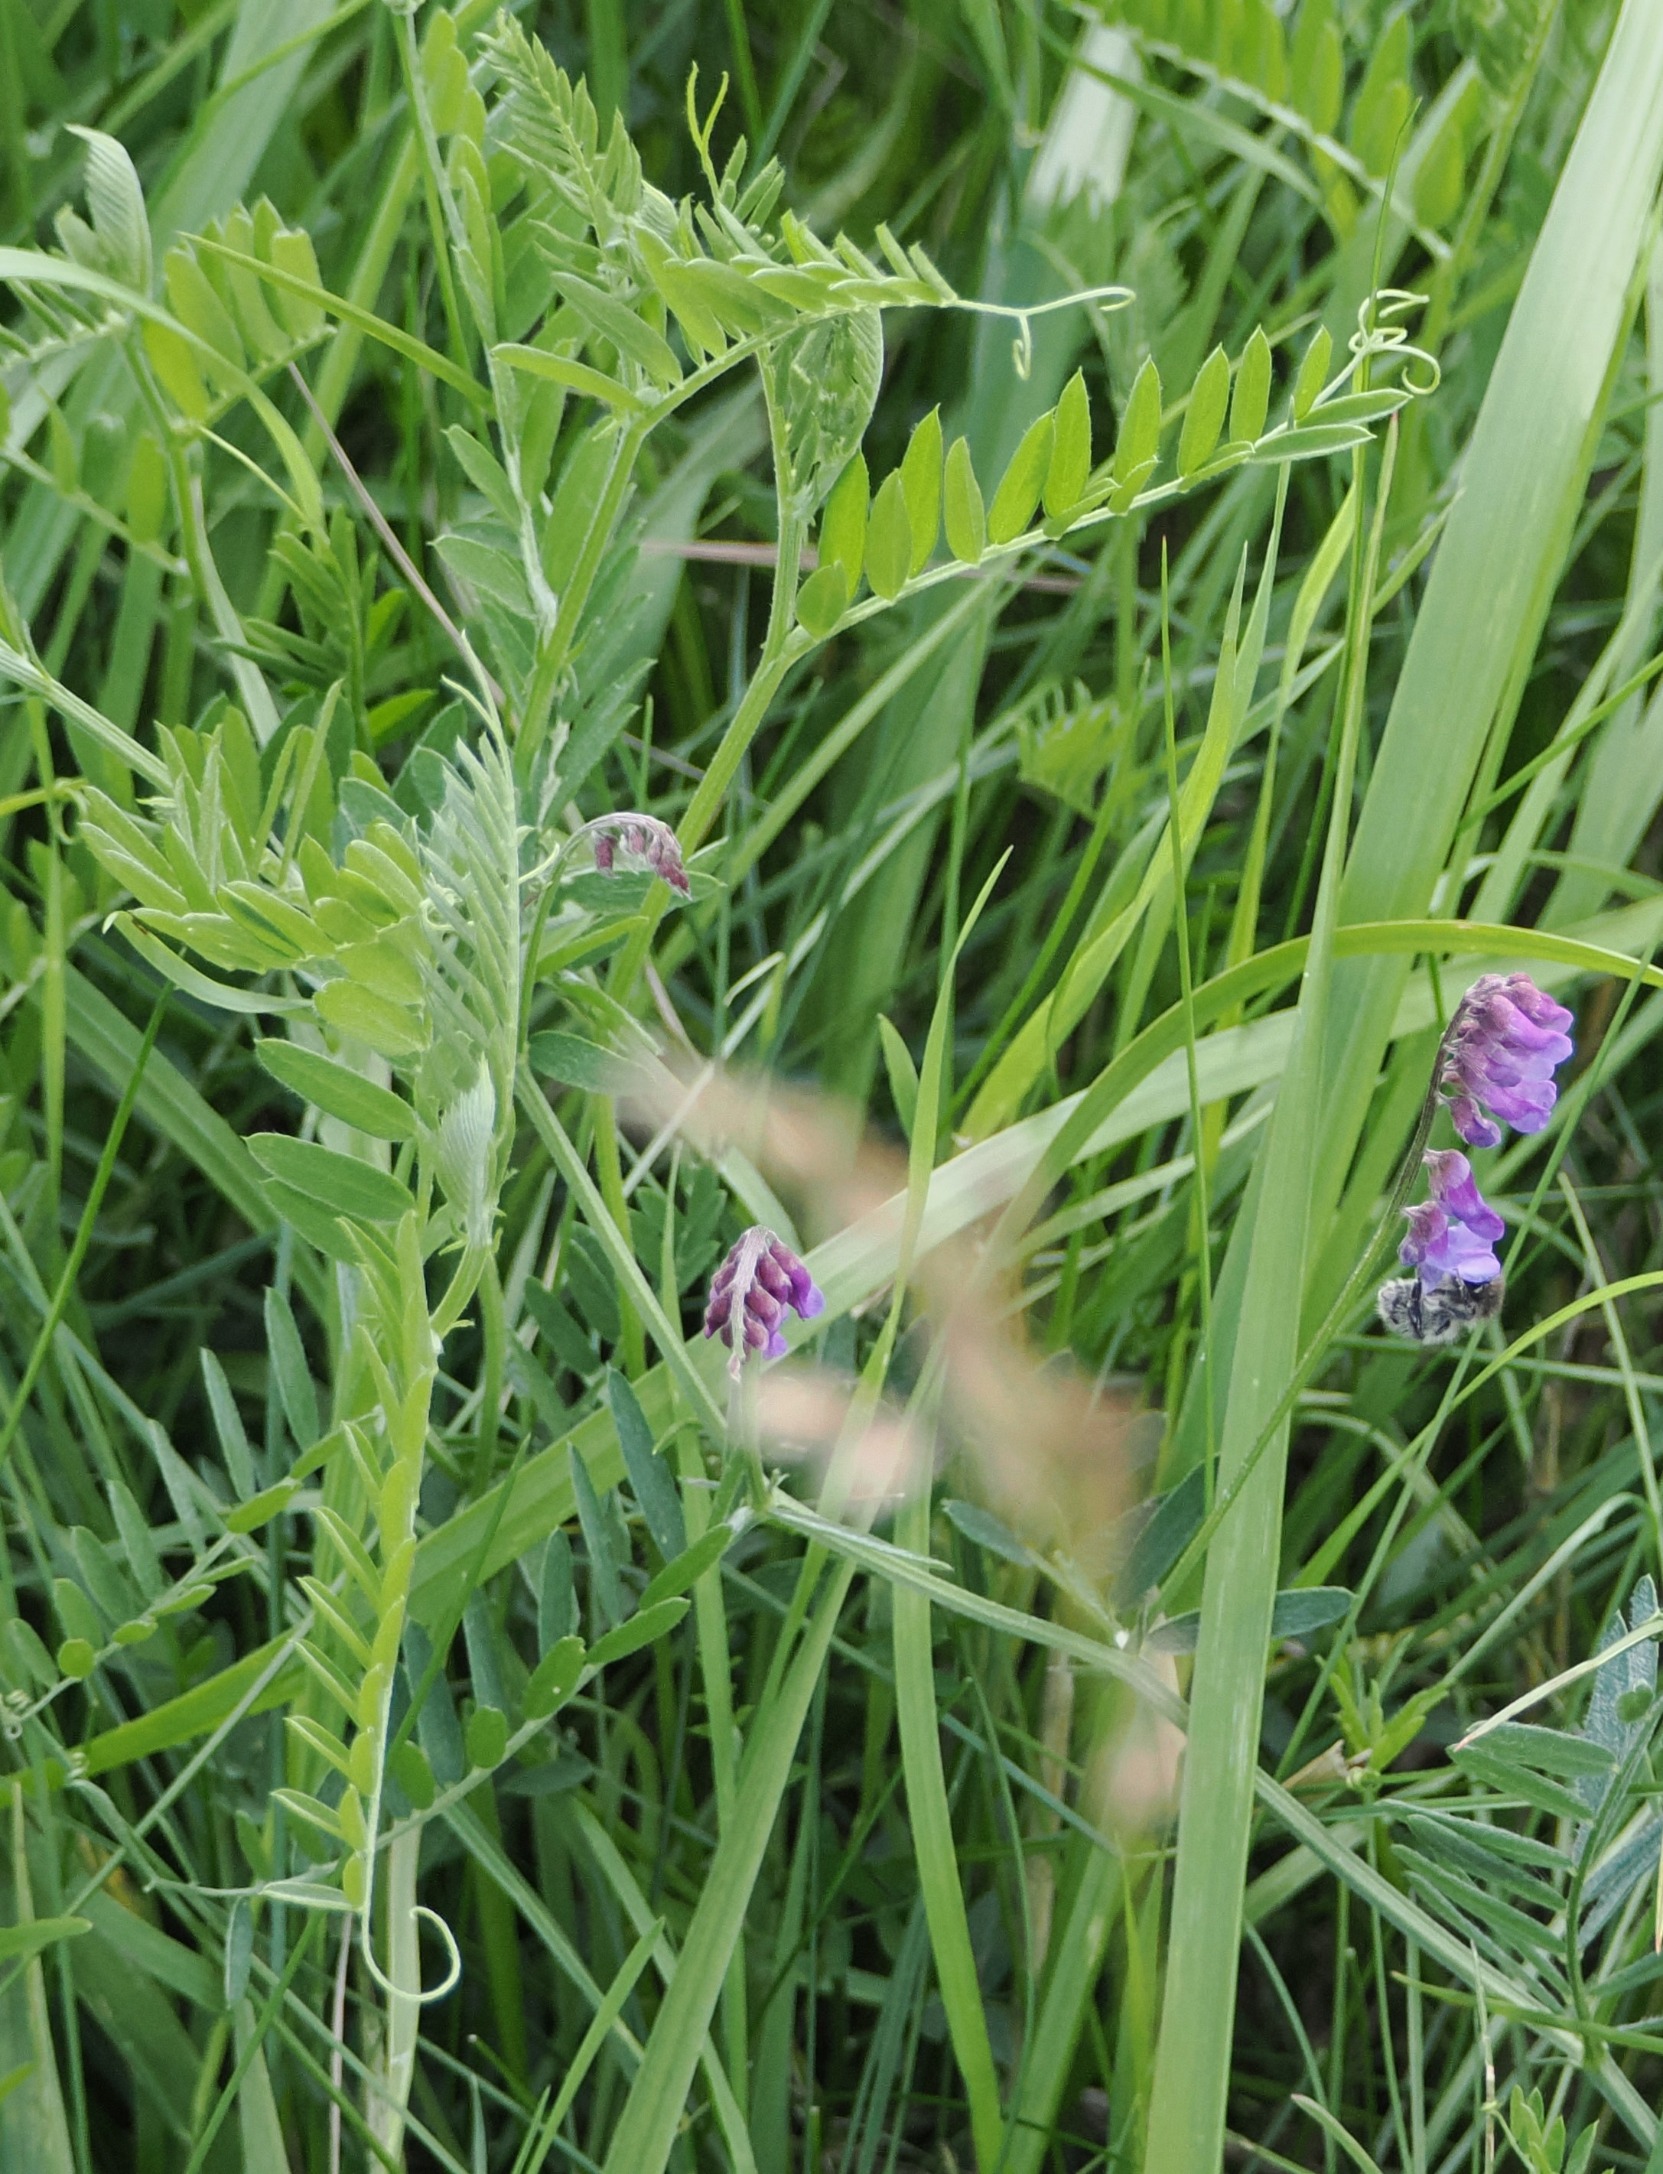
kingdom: Plantae
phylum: Tracheophyta
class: Magnoliopsida
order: Fabales
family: Fabaceae
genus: Vicia
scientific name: Vicia cracca
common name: Muse-vikke
